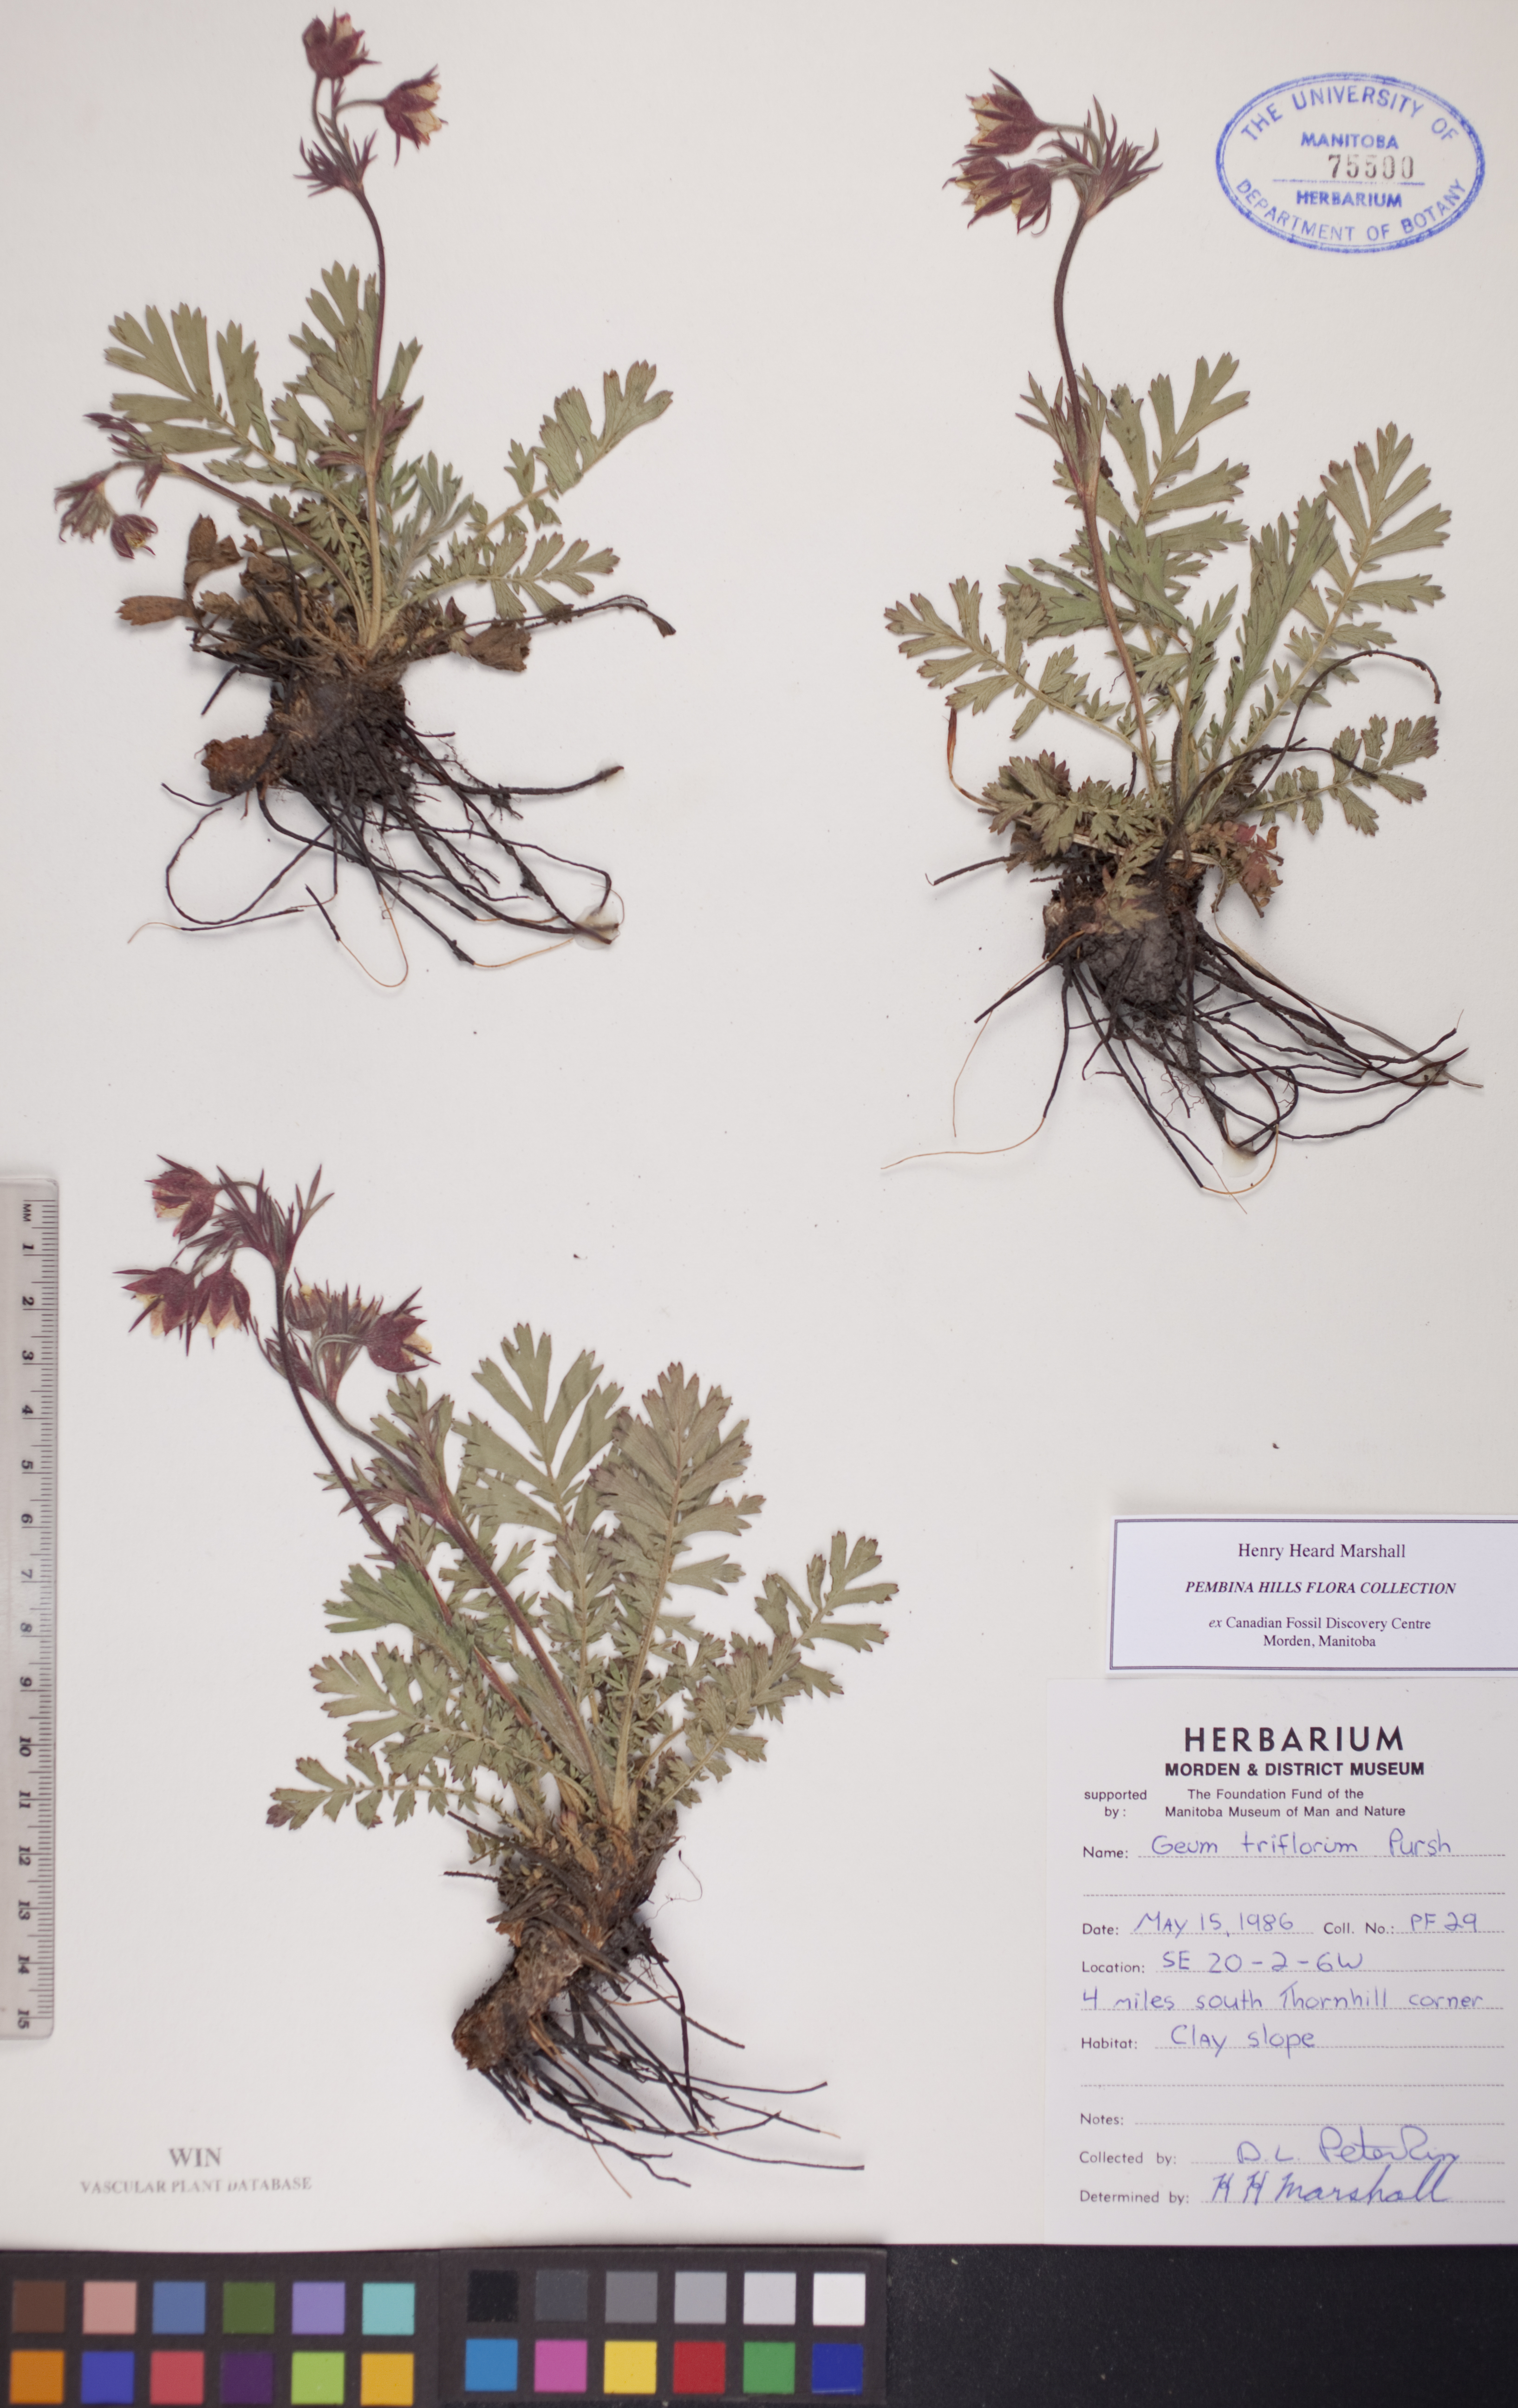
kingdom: Plantae
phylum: Tracheophyta
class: Magnoliopsida
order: Rosales
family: Rosaceae
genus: Geum
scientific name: Geum triflorum
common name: Old man's whiskers
